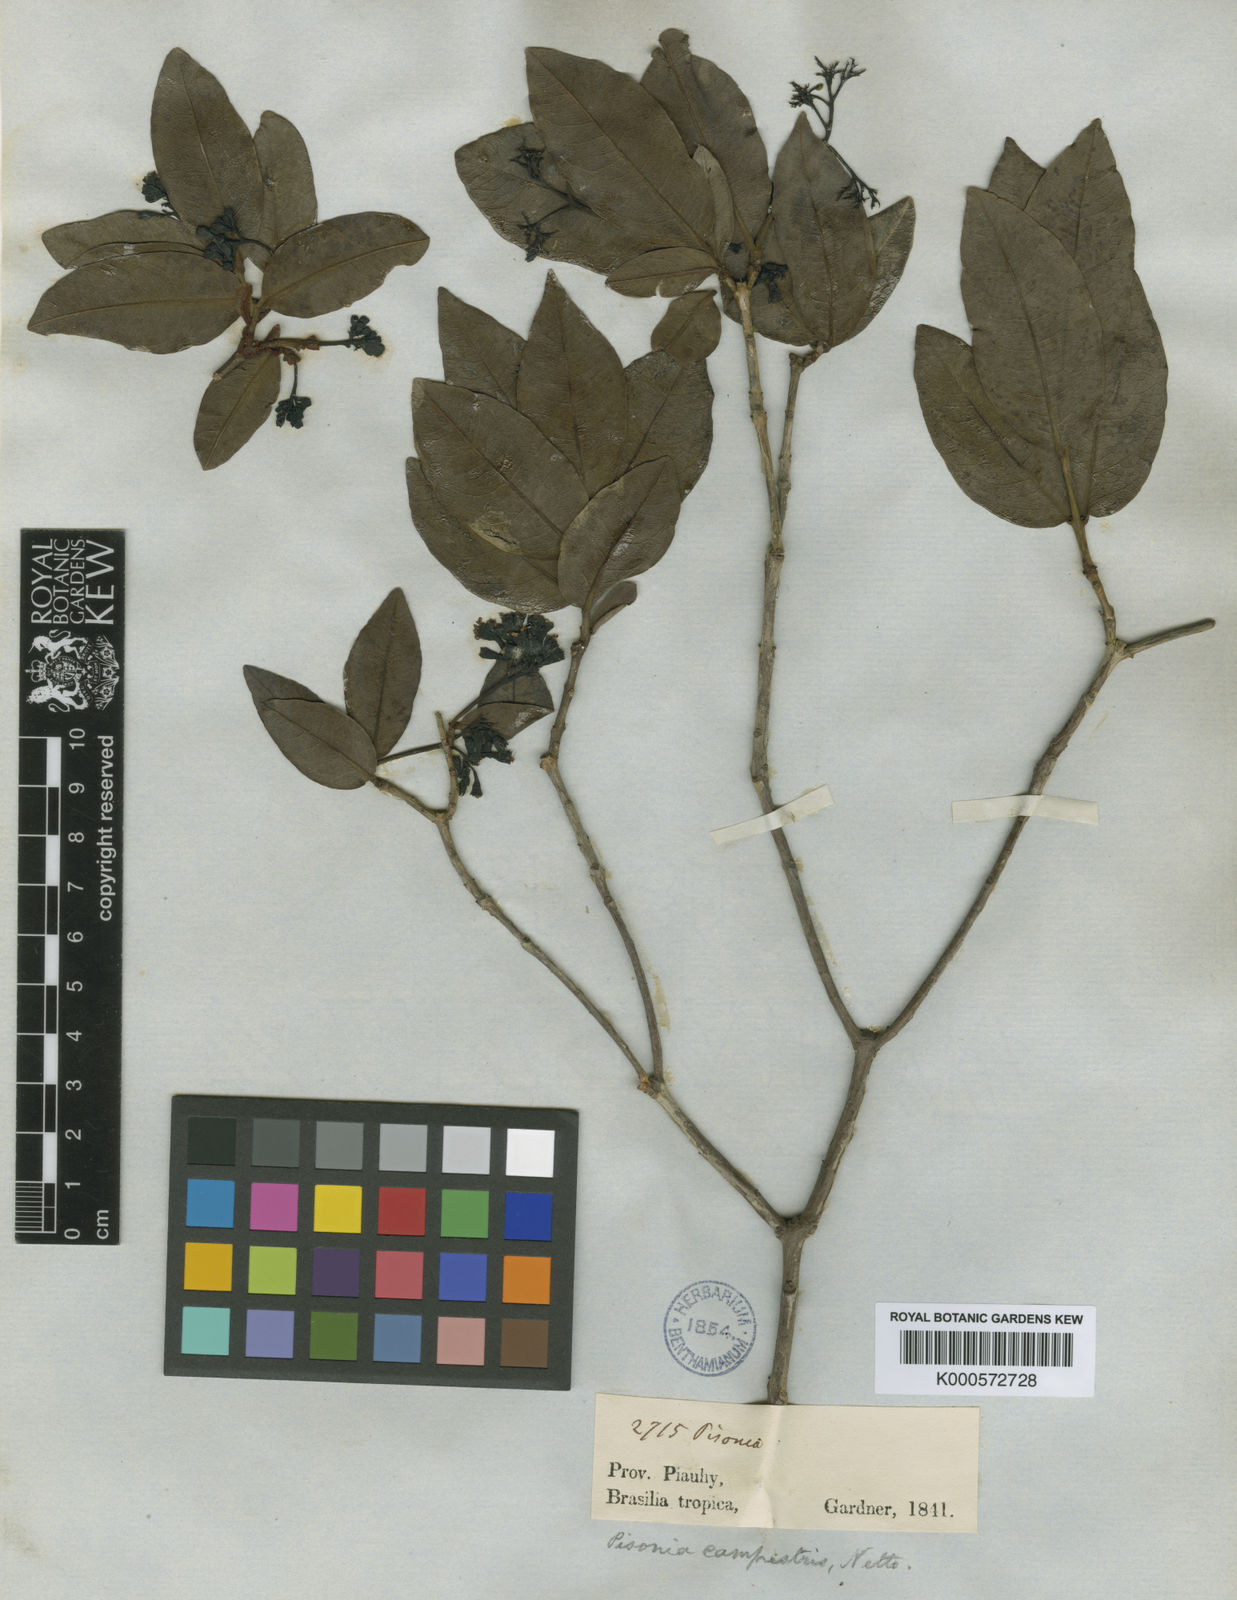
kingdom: Plantae
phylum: Tracheophyta
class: Magnoliopsida
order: Caryophyllales
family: Nyctaginaceae
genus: Guapira
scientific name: Guapira campestris
